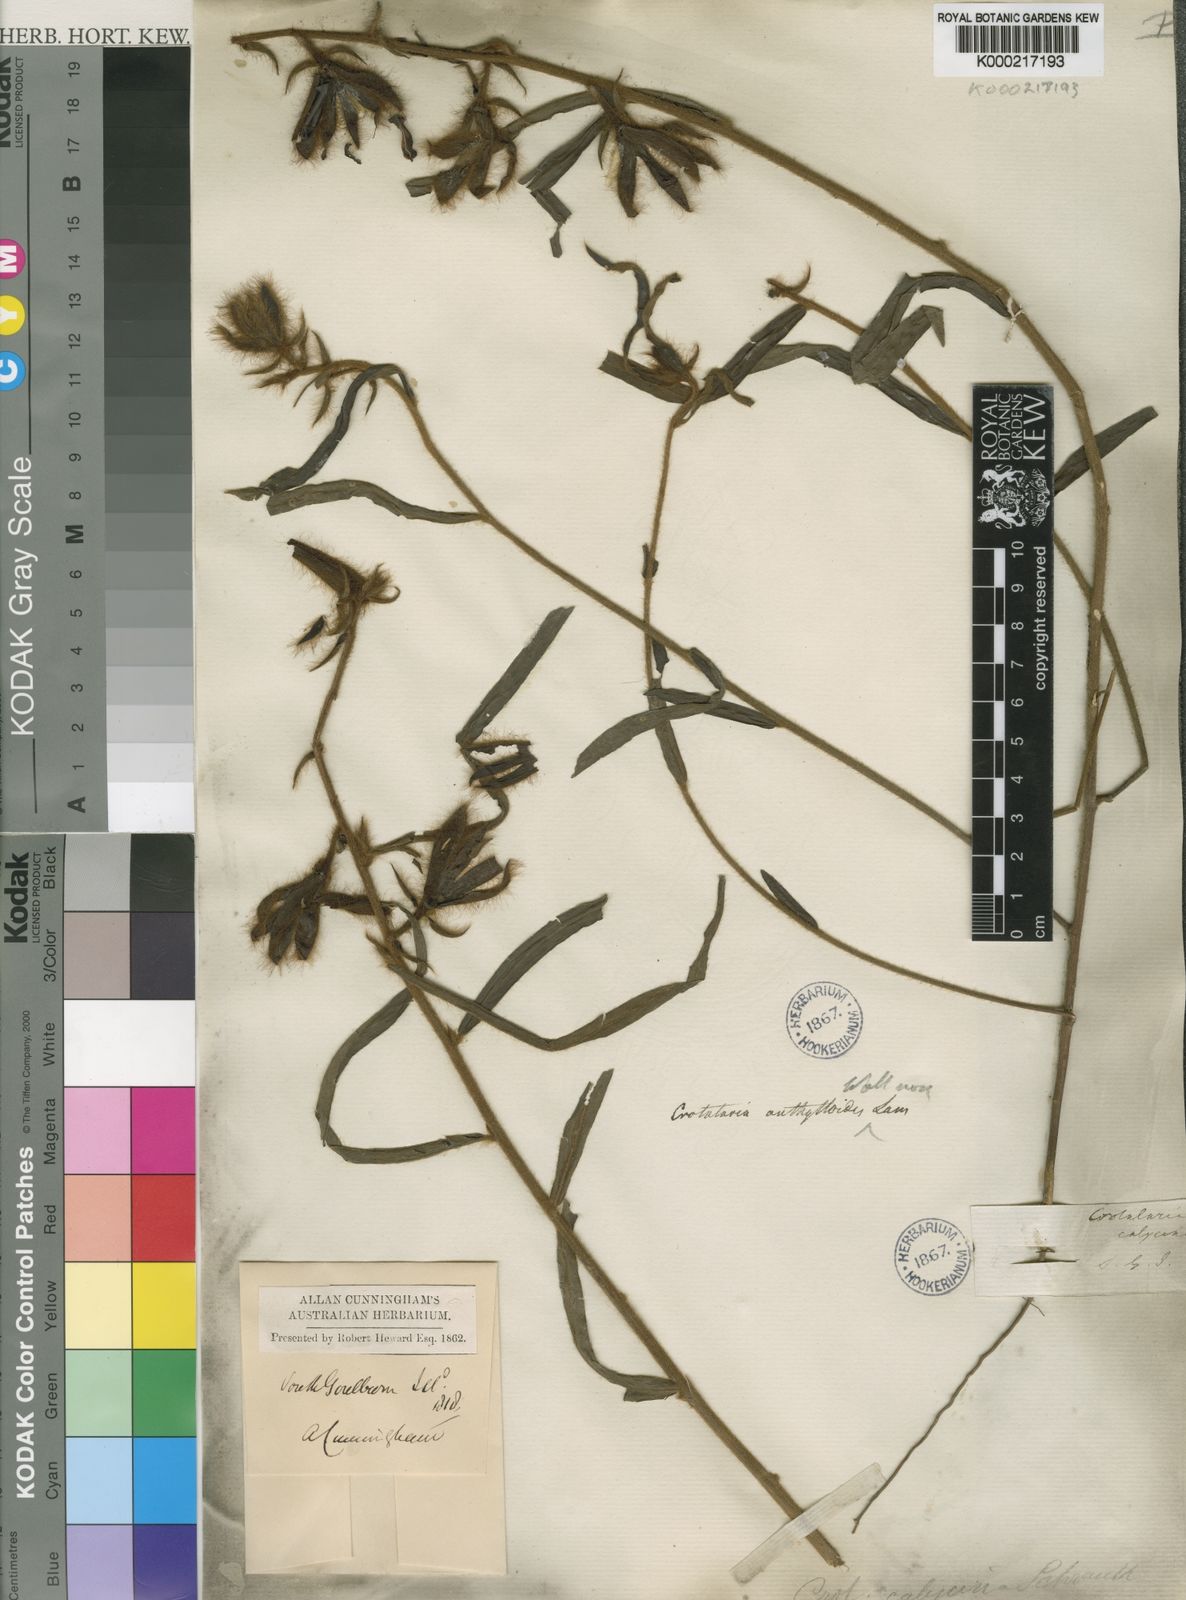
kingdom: Plantae
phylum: Tracheophyta
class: Magnoliopsida
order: Fabales
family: Fabaceae
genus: Crotalaria
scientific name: Crotalaria calycina
